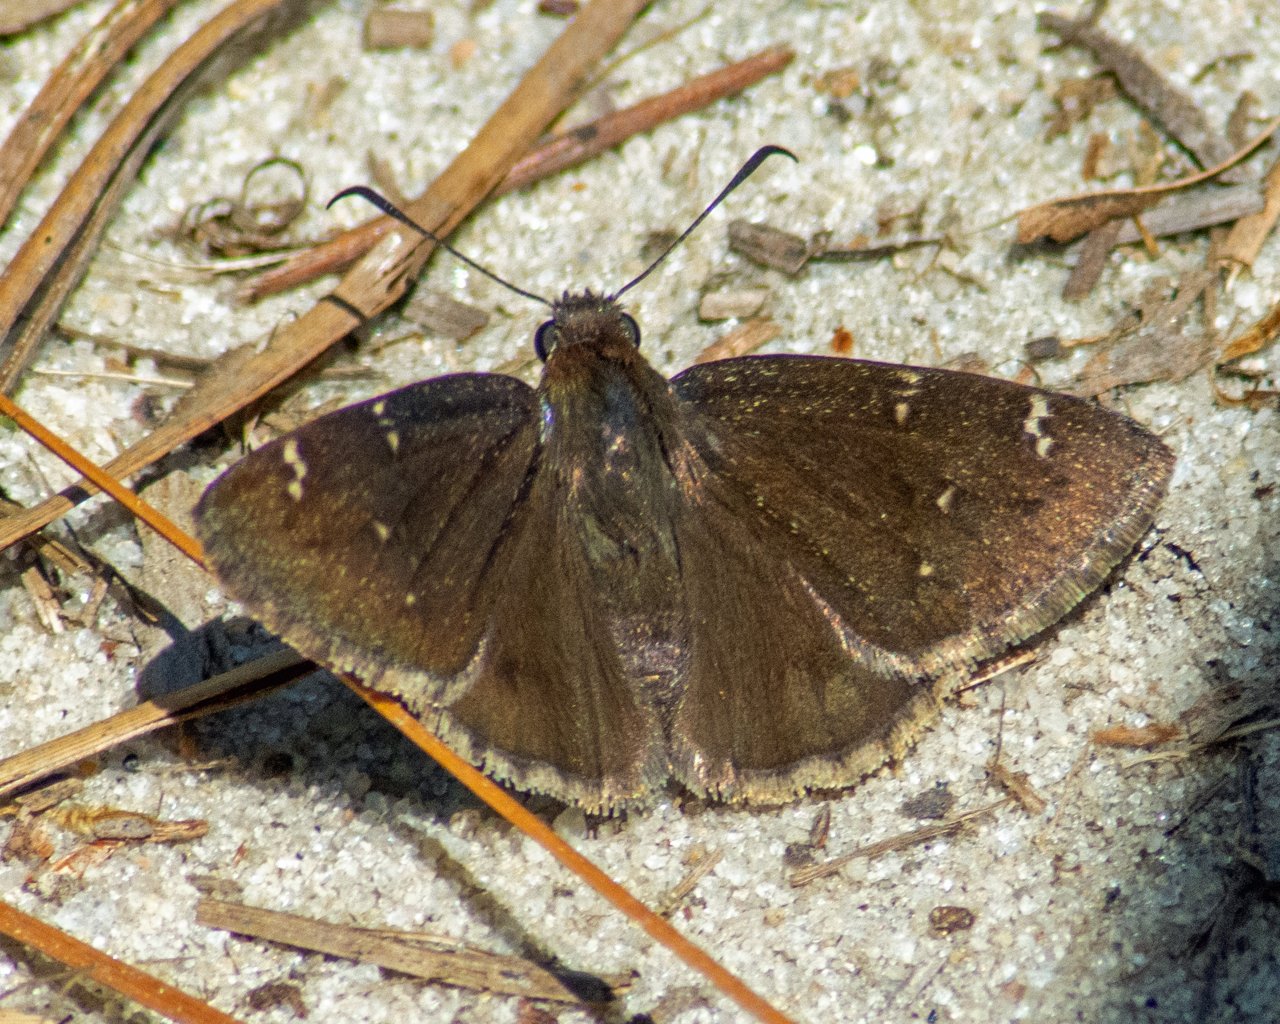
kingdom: Animalia
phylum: Arthropoda
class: Insecta
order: Lepidoptera
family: Hesperiidae
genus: Thorybes
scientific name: Thorybes mexicana
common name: Confused Cloudywing
